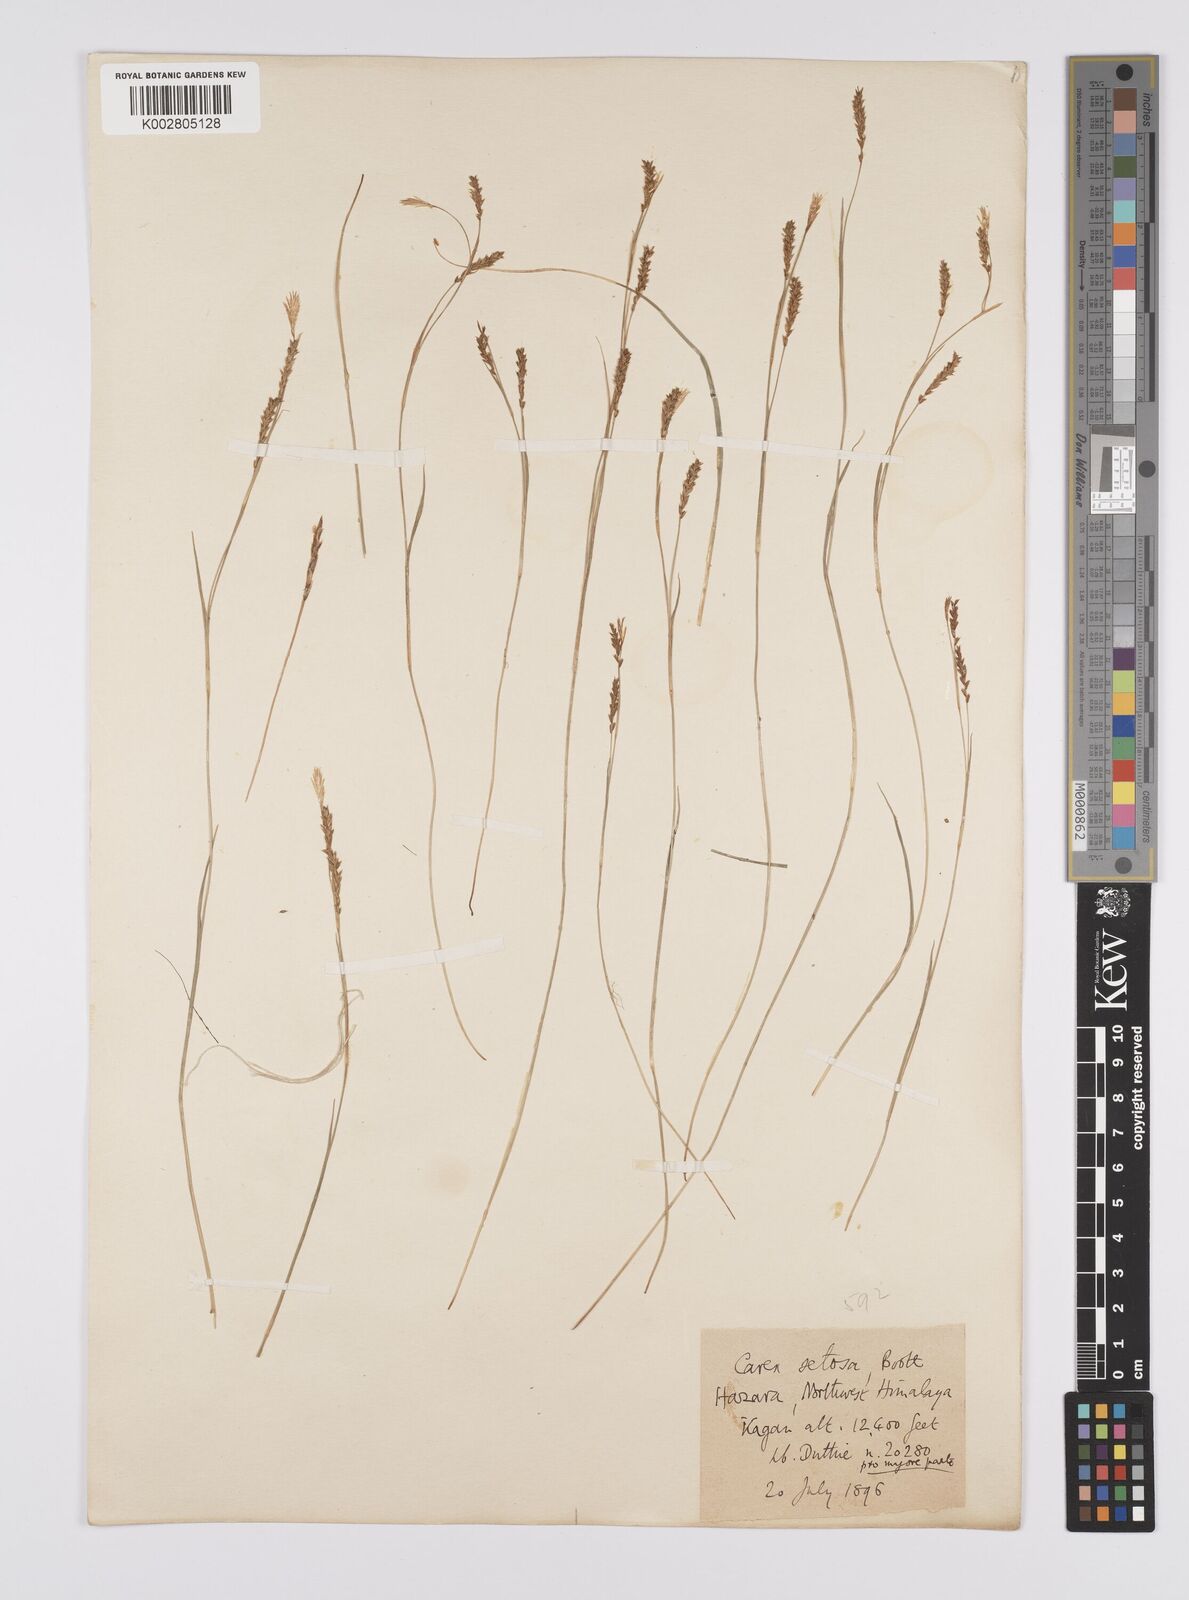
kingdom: Plantae
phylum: Tracheophyta
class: Liliopsida
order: Poales
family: Cyperaceae
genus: Carex
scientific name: Carex setosa
